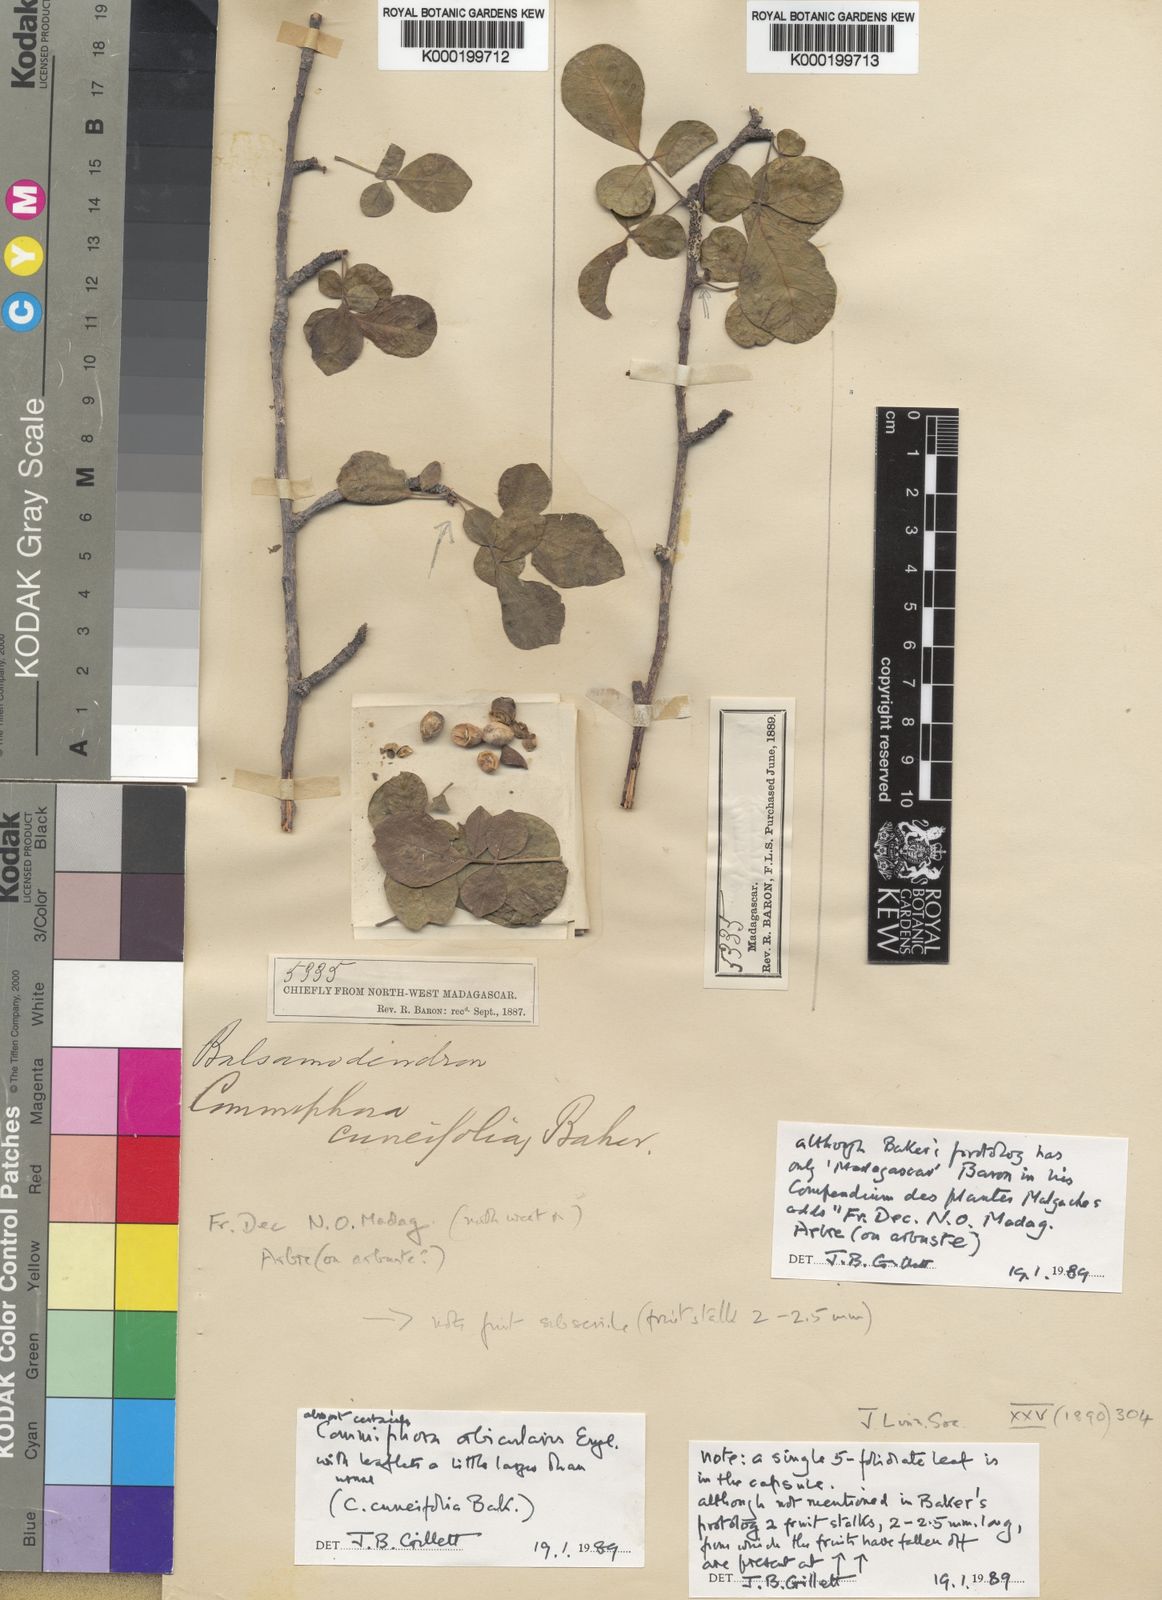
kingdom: Plantae
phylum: Tracheophyta
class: Magnoliopsida
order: Sapindales
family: Burseraceae
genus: Commiphora
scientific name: Commiphora orbicularis
